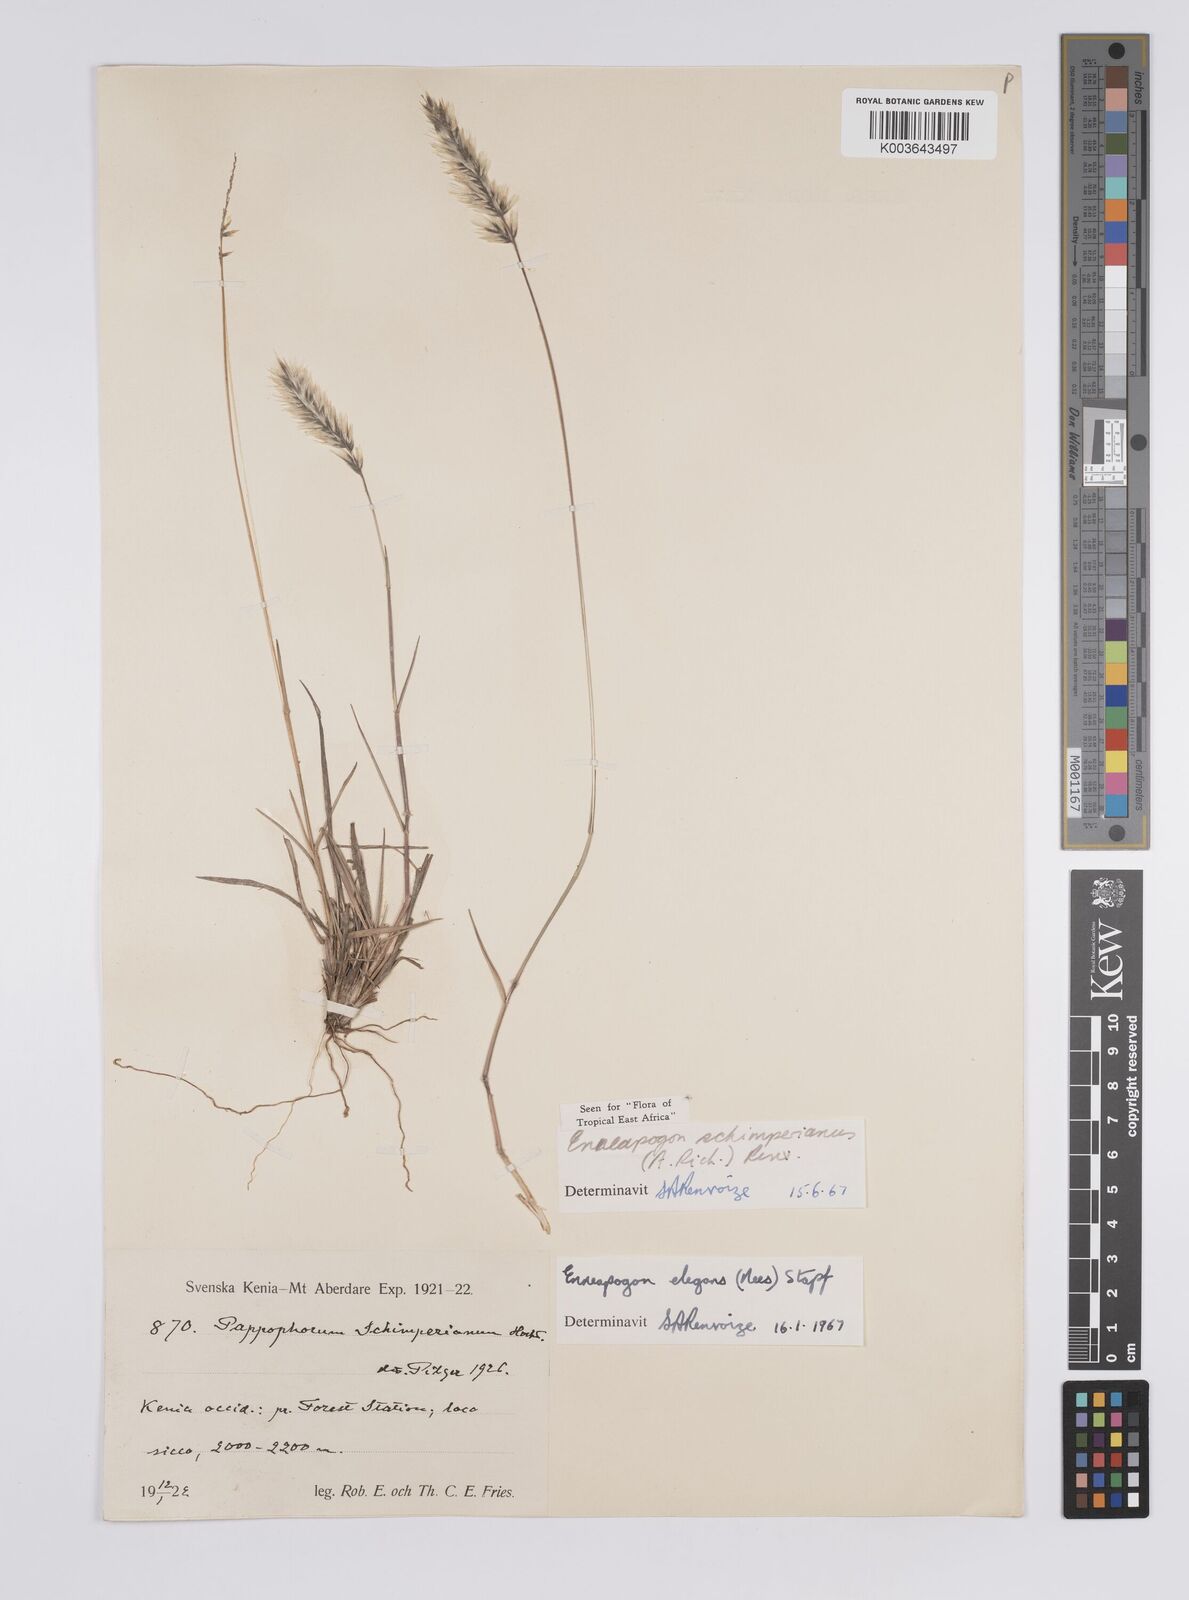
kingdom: Plantae
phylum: Tracheophyta
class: Liliopsida
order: Poales
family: Poaceae
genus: Enneapogon
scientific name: Enneapogon persicus
